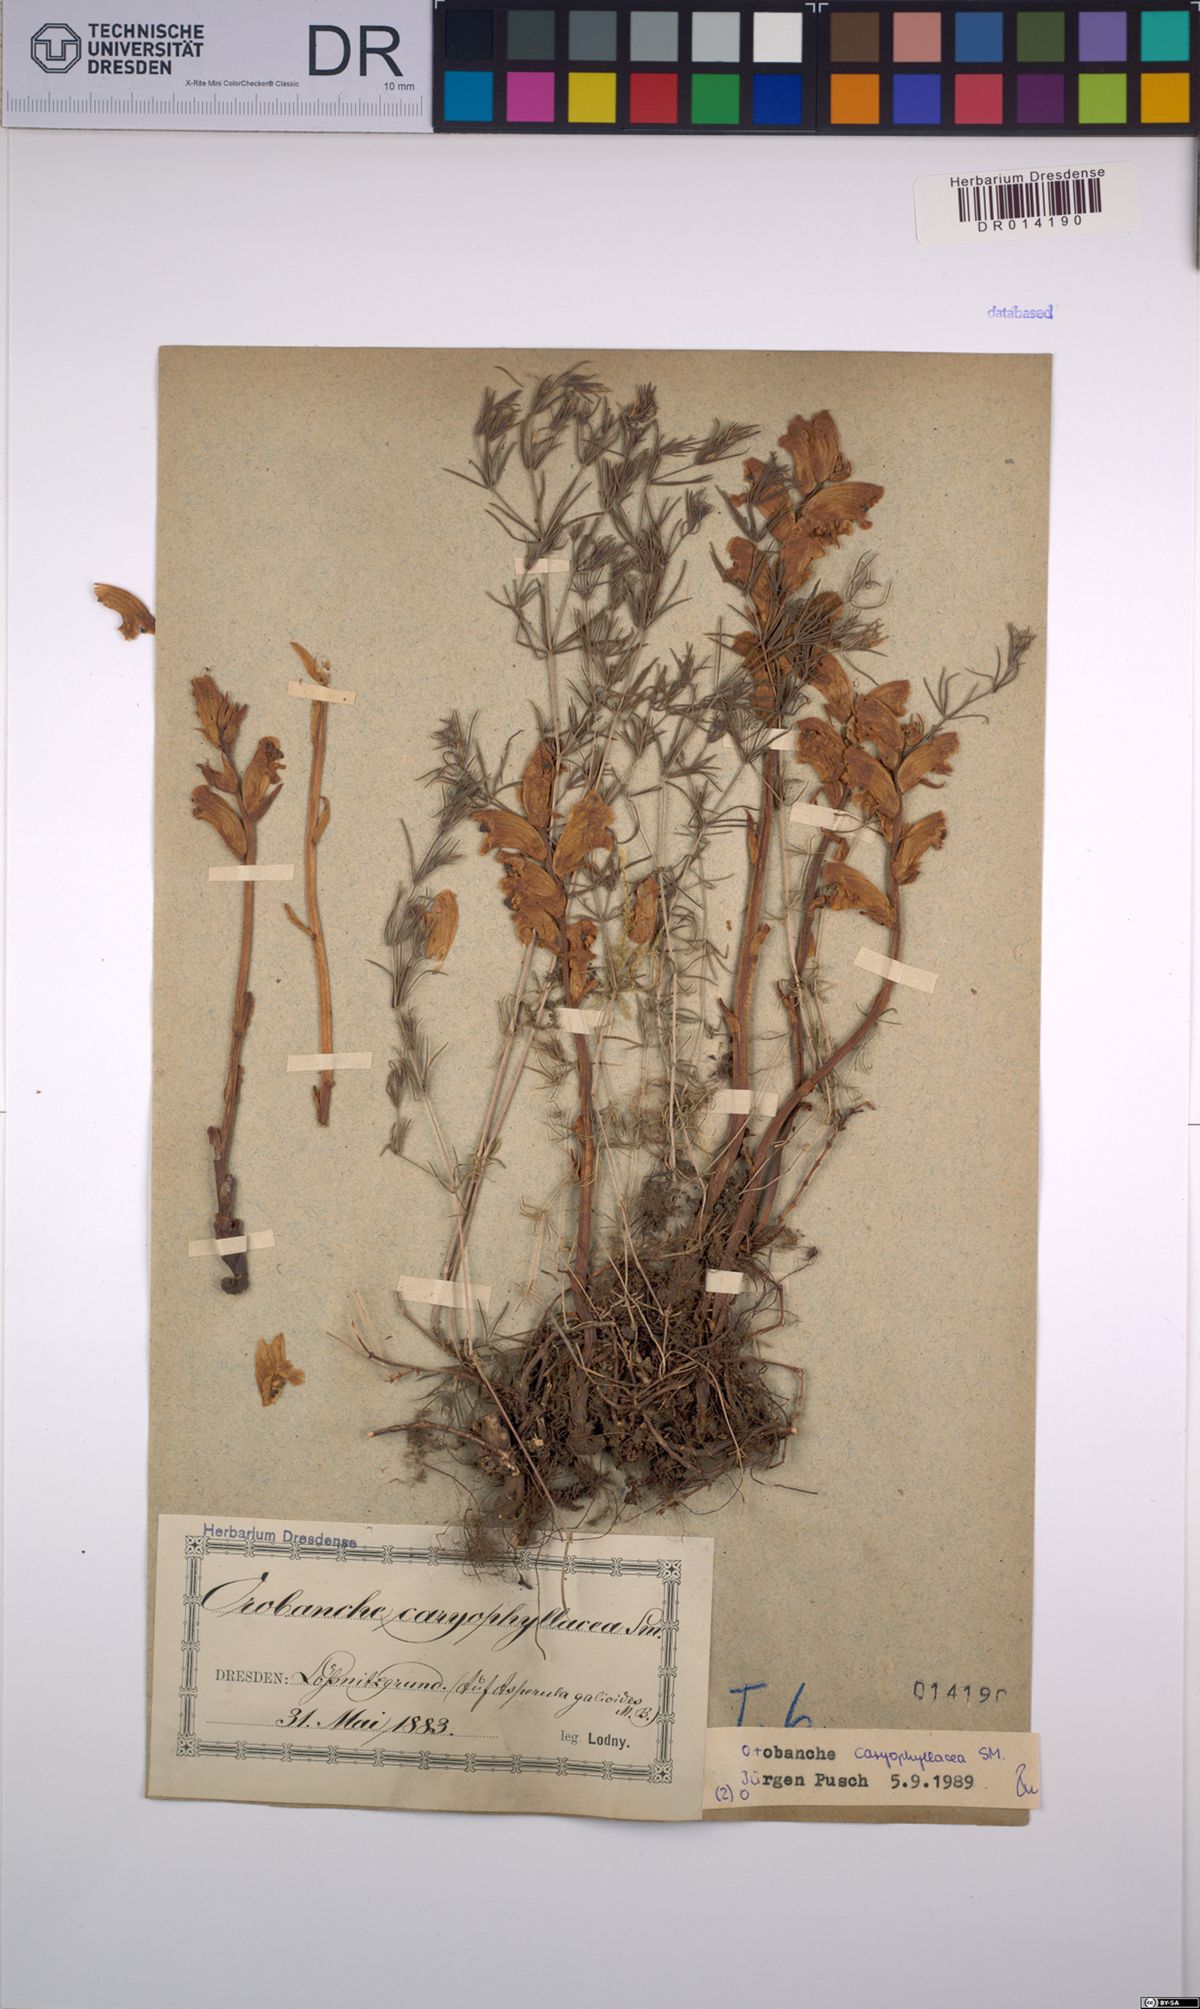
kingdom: Plantae
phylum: Tracheophyta
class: Magnoliopsida
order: Lamiales
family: Orobanchaceae
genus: Orobanche
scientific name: Orobanche caryophyllacea
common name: Bedstraw broomrape
